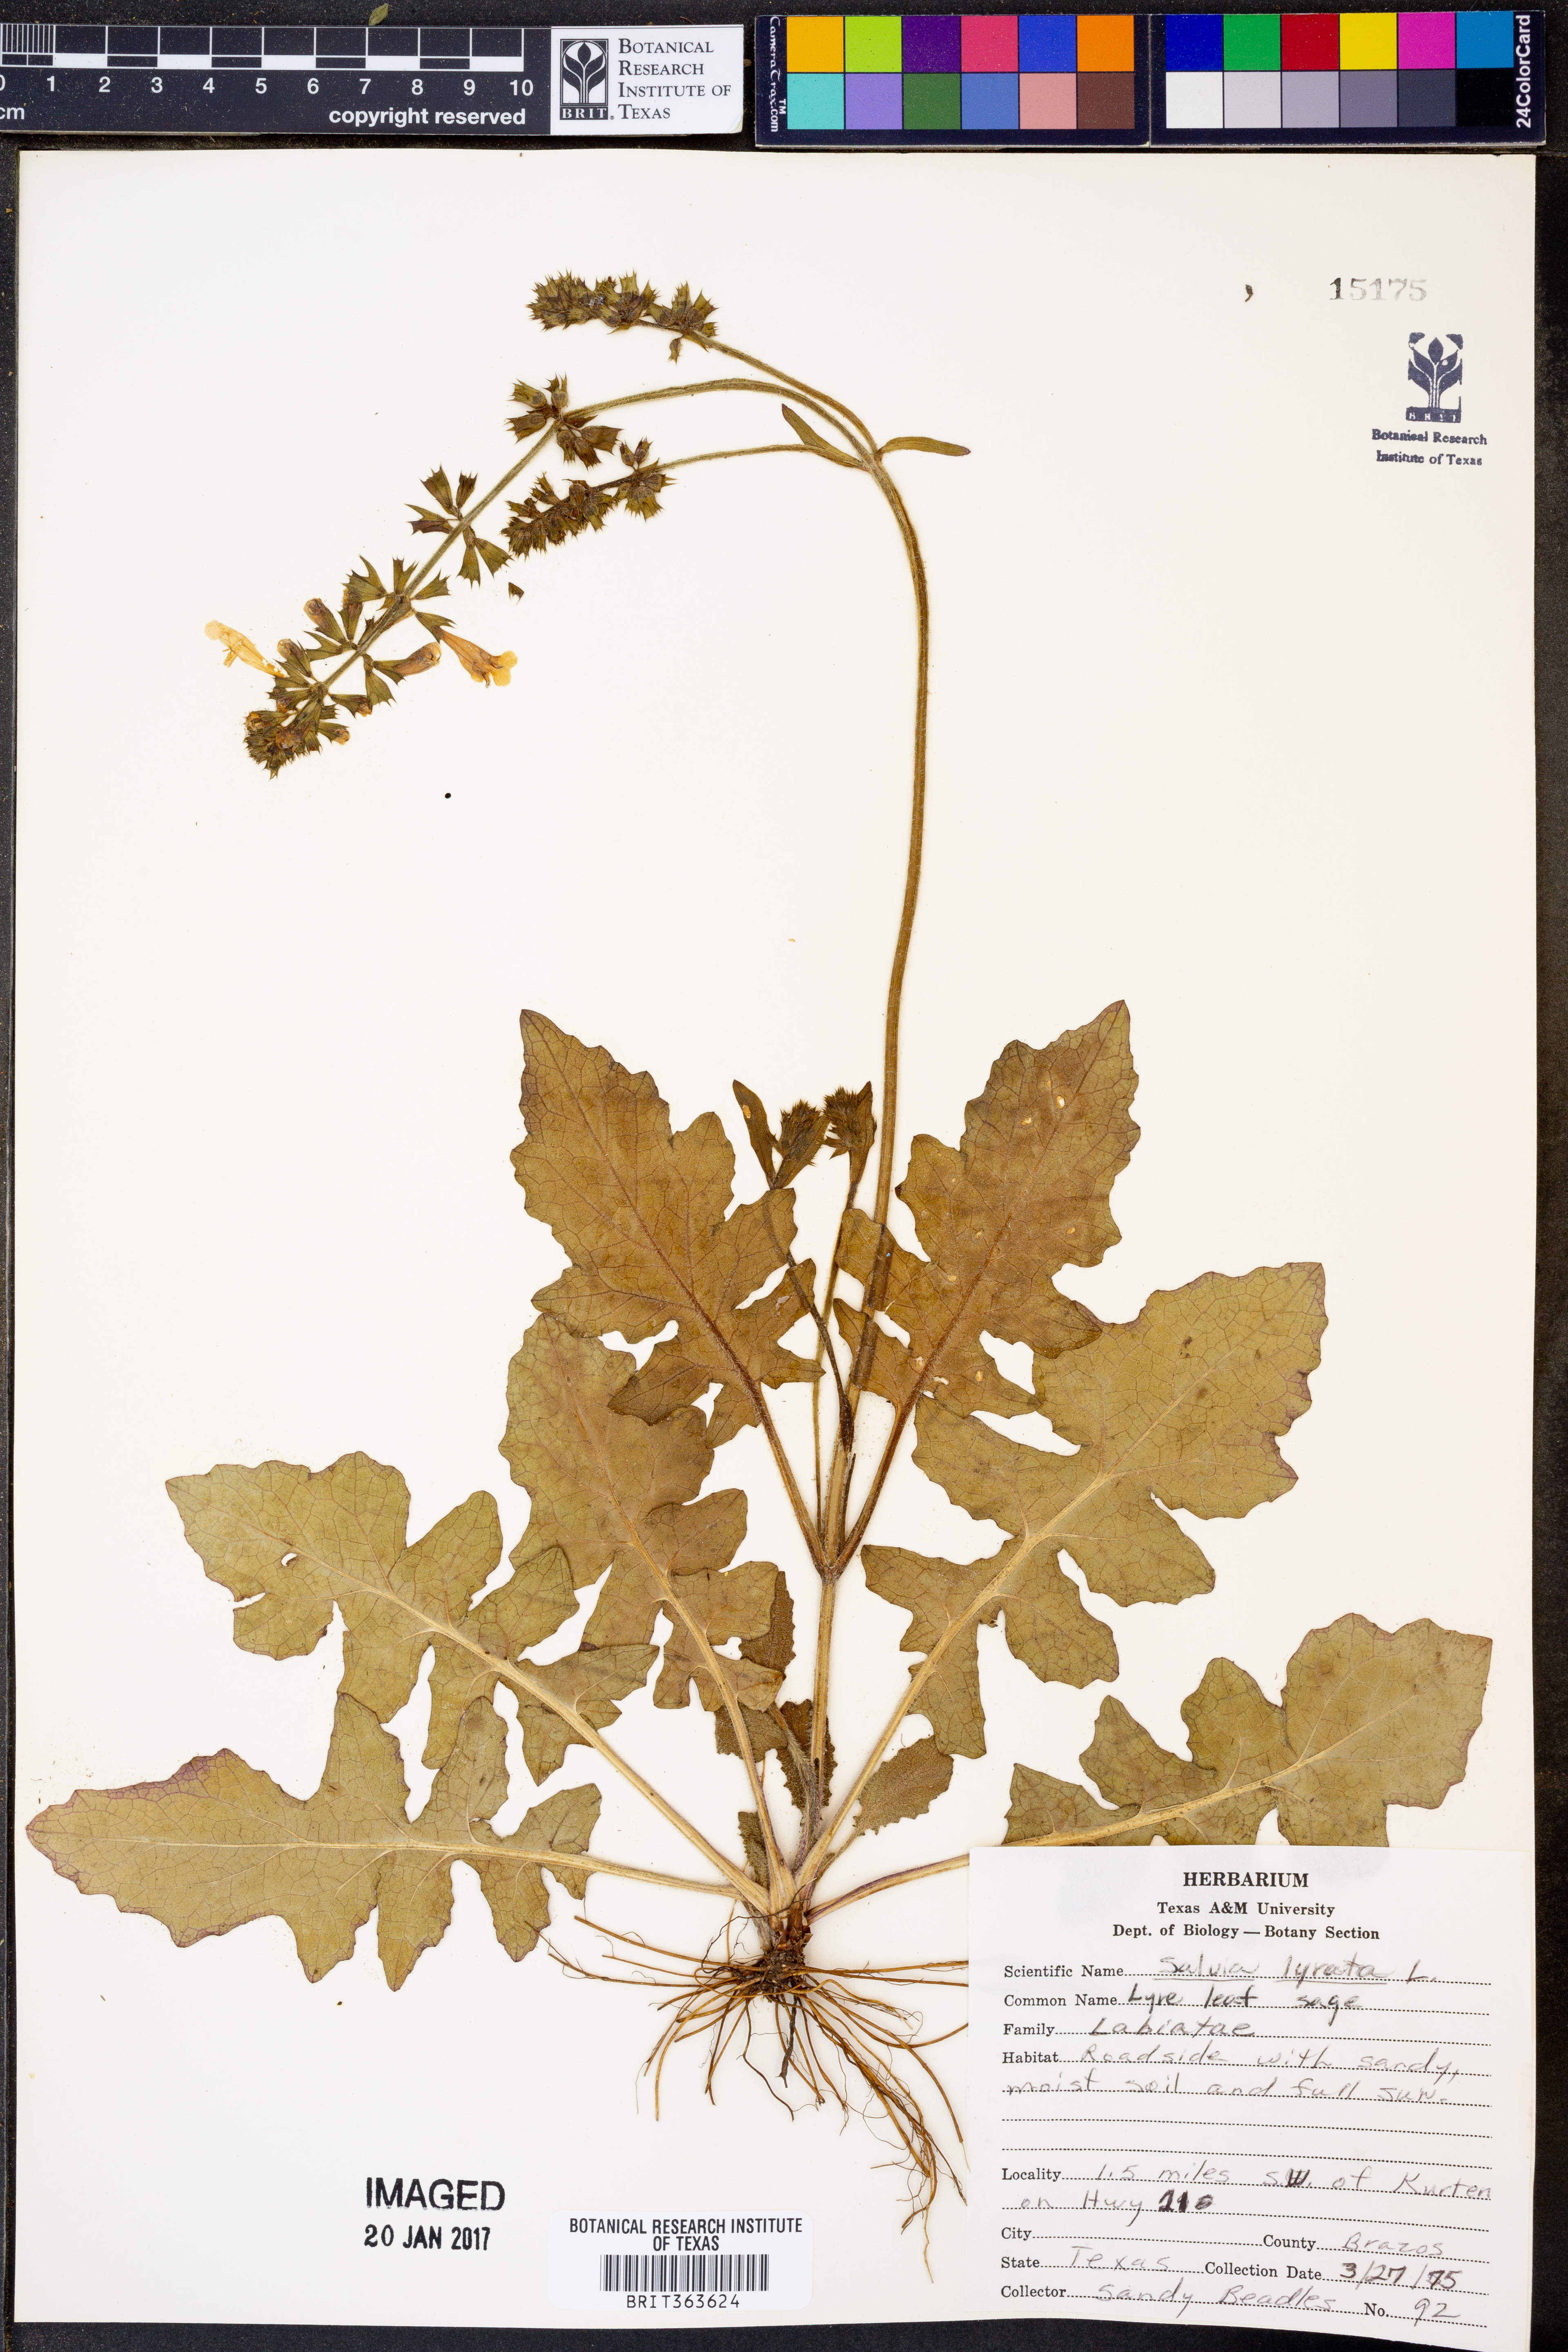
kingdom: Plantae
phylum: Tracheophyta
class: Magnoliopsida
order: Lamiales
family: Lamiaceae
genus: Salvia
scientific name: Salvia lyrata
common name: Cancerweed
